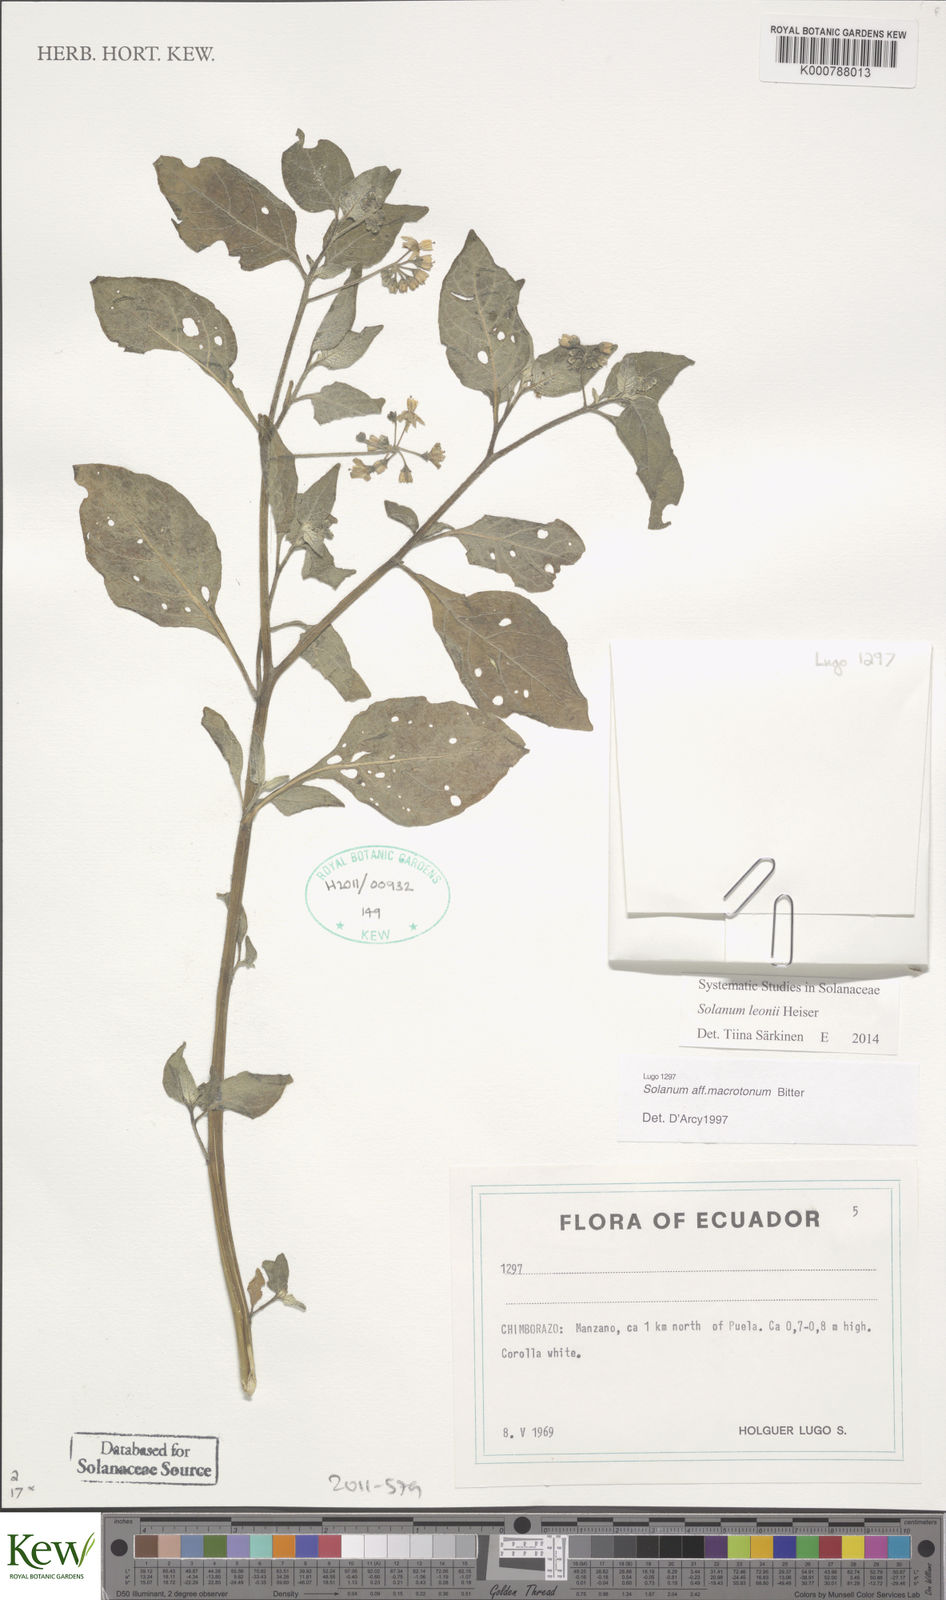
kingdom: Plantae
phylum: Tracheophyta
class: Magnoliopsida
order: Solanales
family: Solanaceae
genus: Solanum
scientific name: Solanum interandinum
